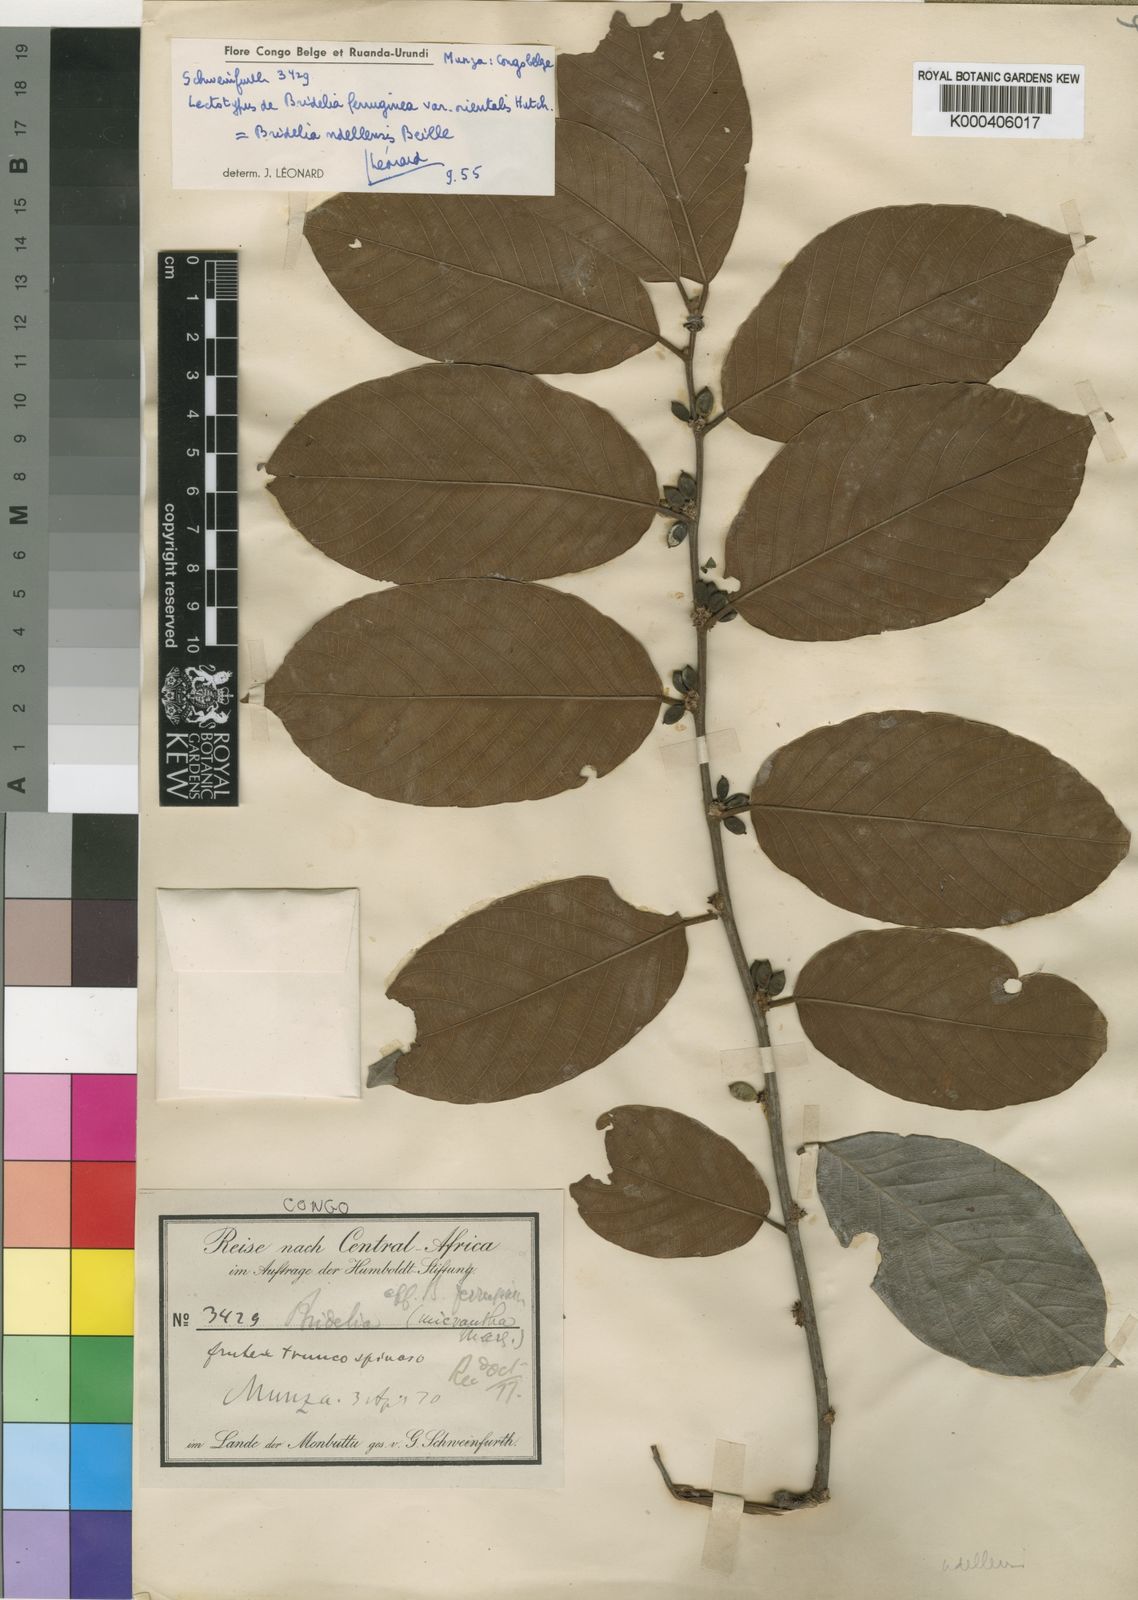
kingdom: Plantae
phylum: Tracheophyta
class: Magnoliopsida
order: Malpighiales
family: Phyllanthaceae
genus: Bridelia
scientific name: Bridelia ndellensis
